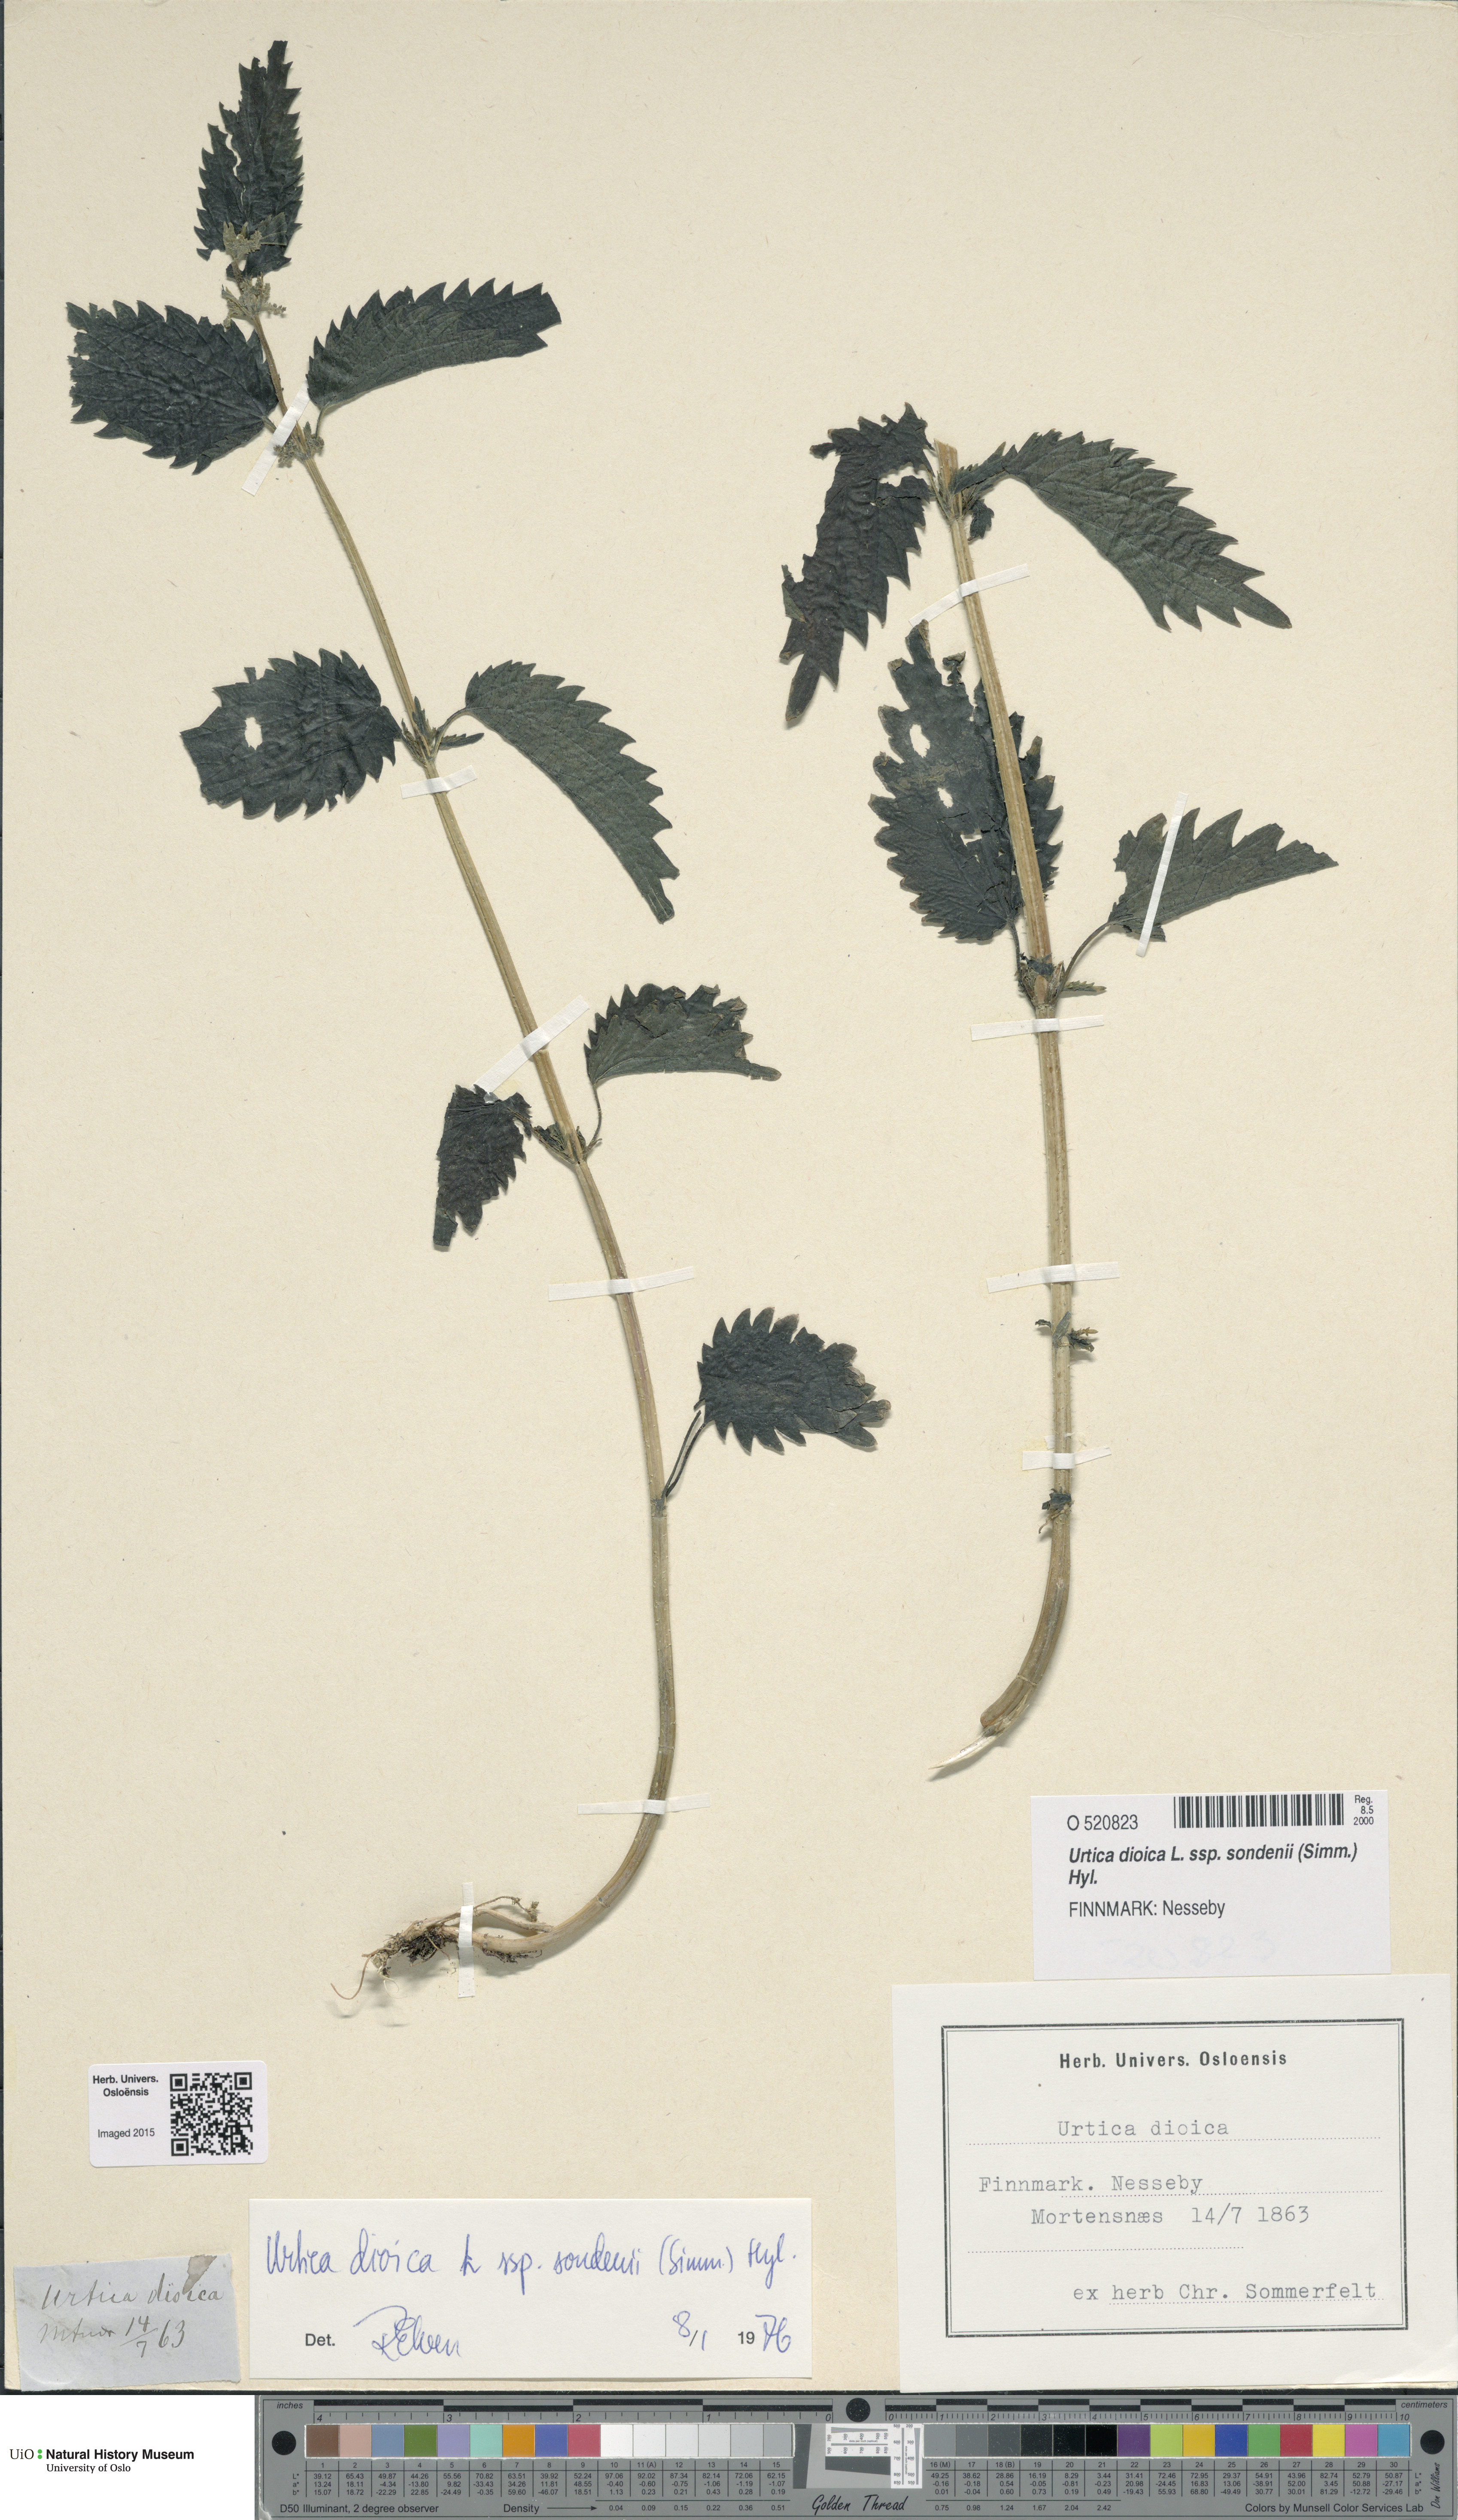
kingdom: Plantae
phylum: Tracheophyta
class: Magnoliopsida
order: Rosales
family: Urticaceae
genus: Urtica
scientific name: Urtica dioica
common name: Common nettle
